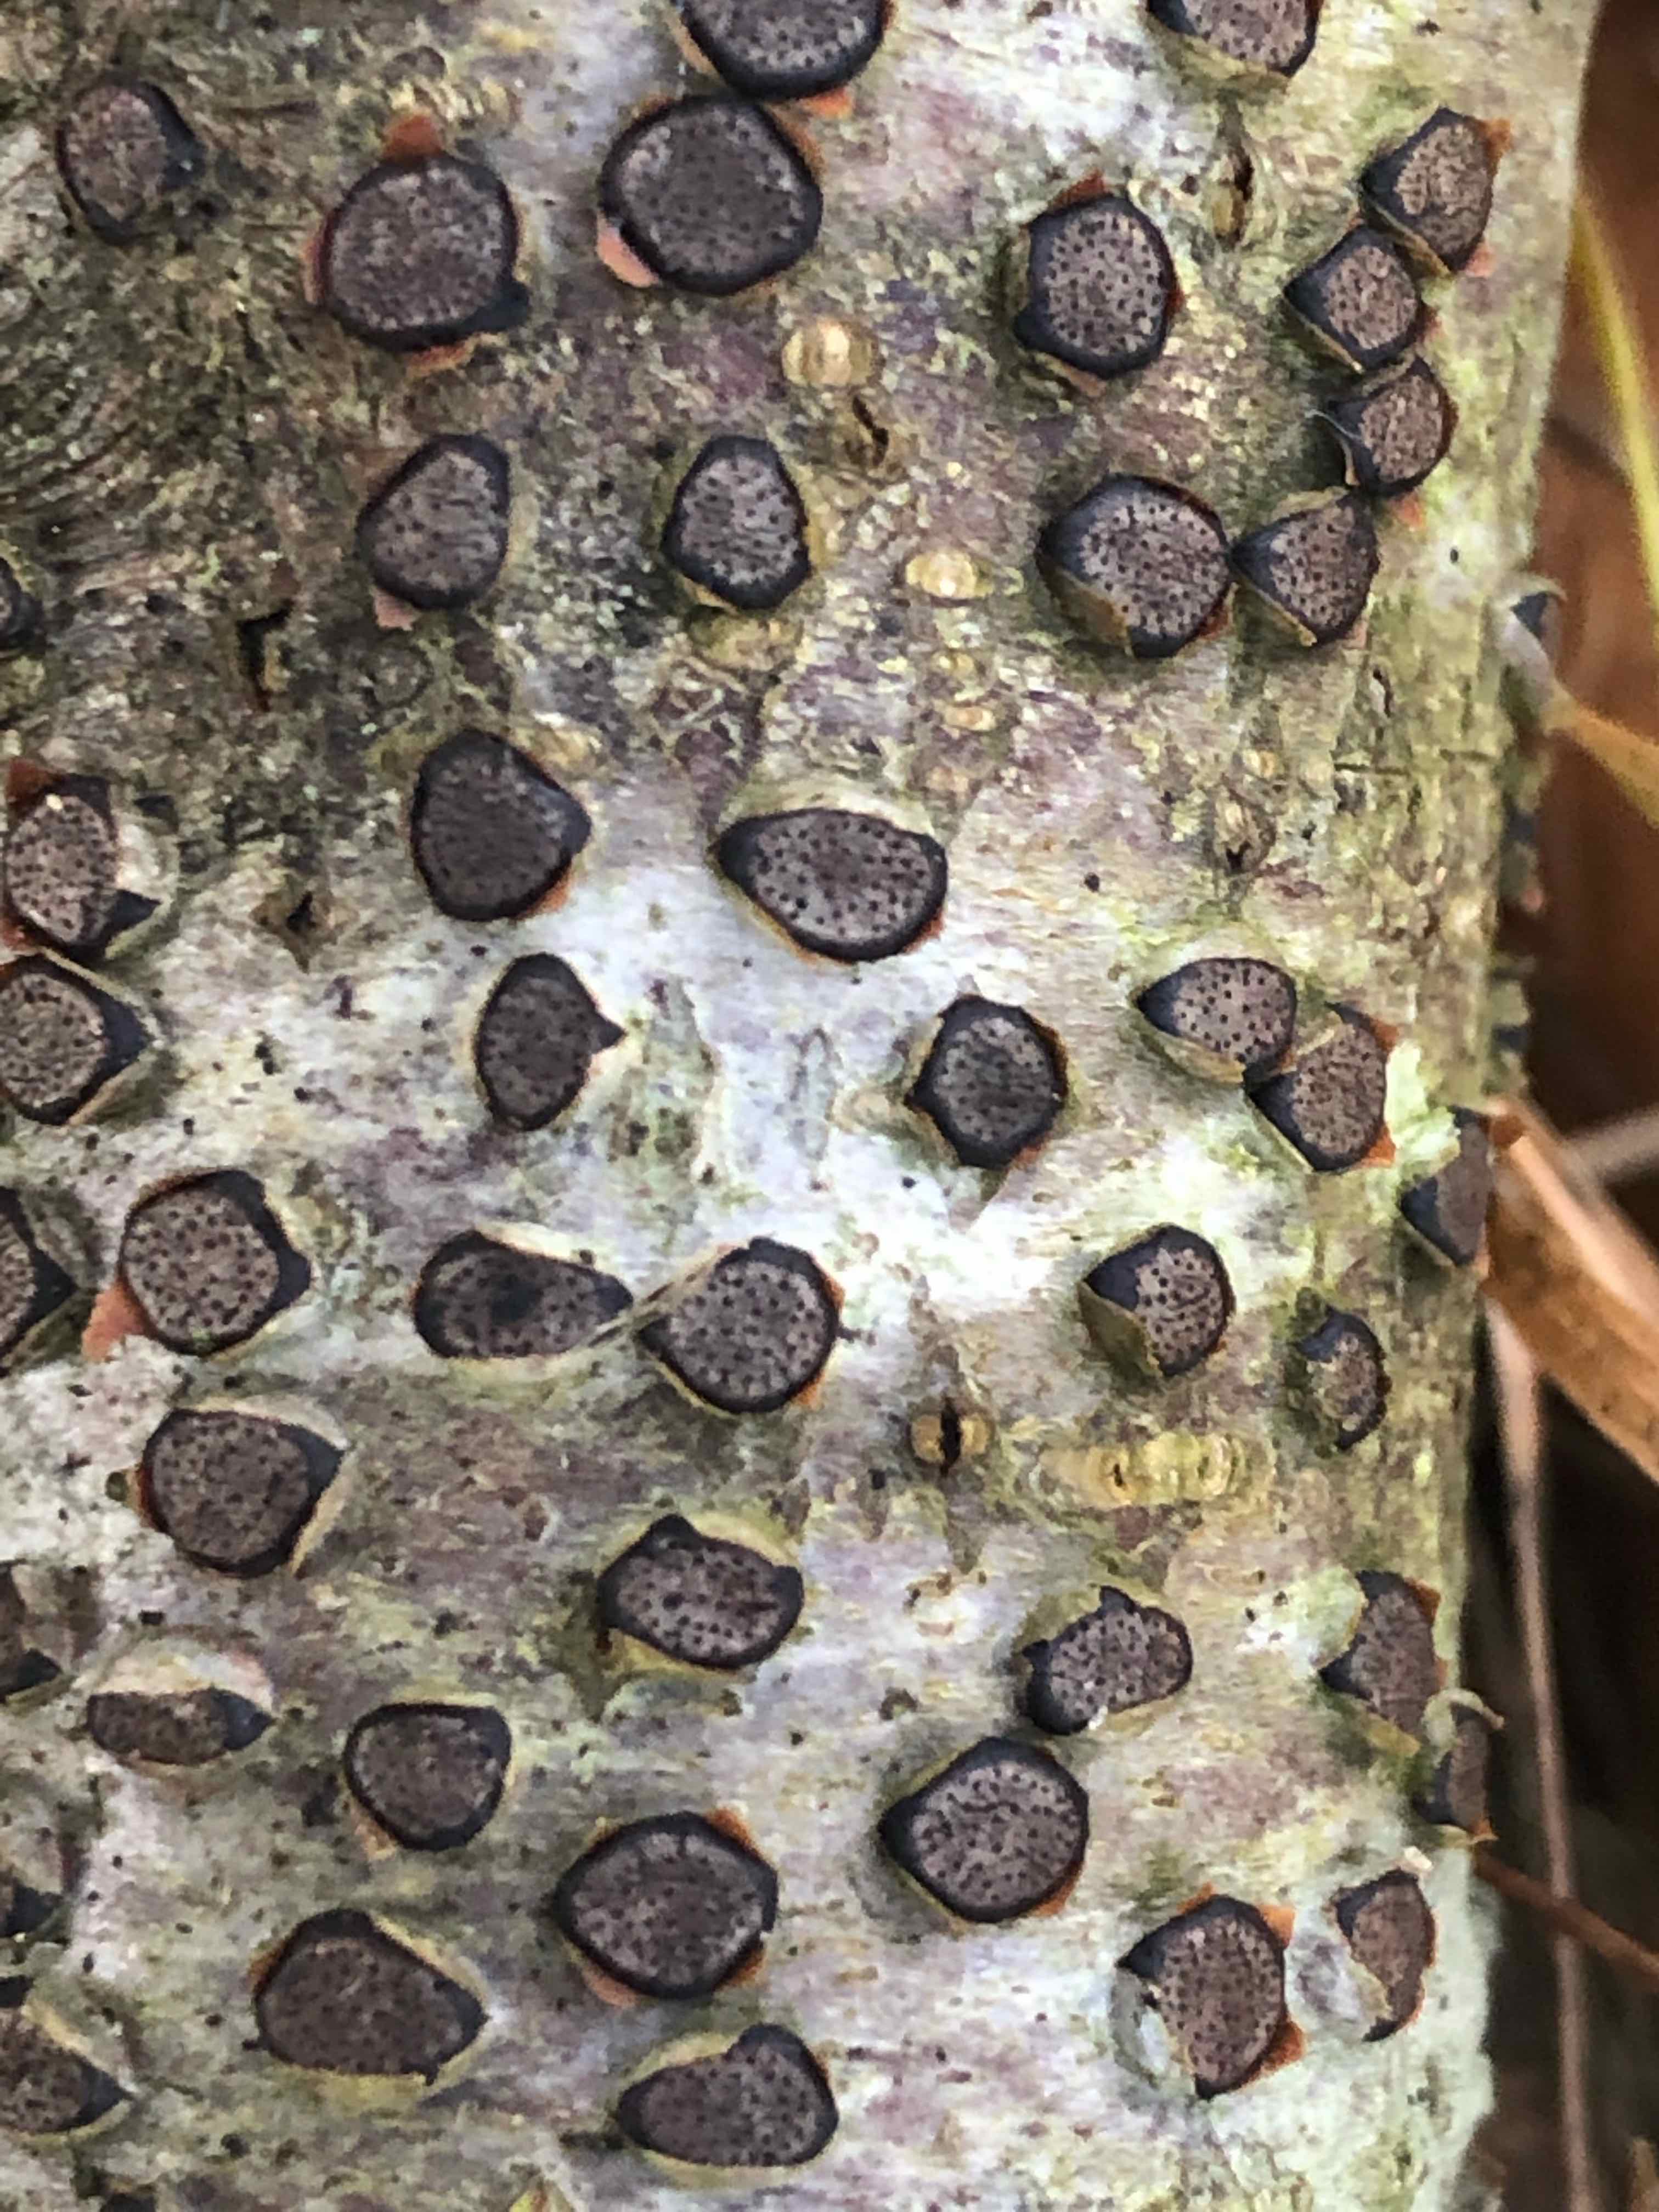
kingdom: Fungi
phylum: Ascomycota
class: Sordariomycetes
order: Xylariales
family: Diatrypaceae
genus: Diatrype
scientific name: Diatrype disciformis
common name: kant-kulskorpe
